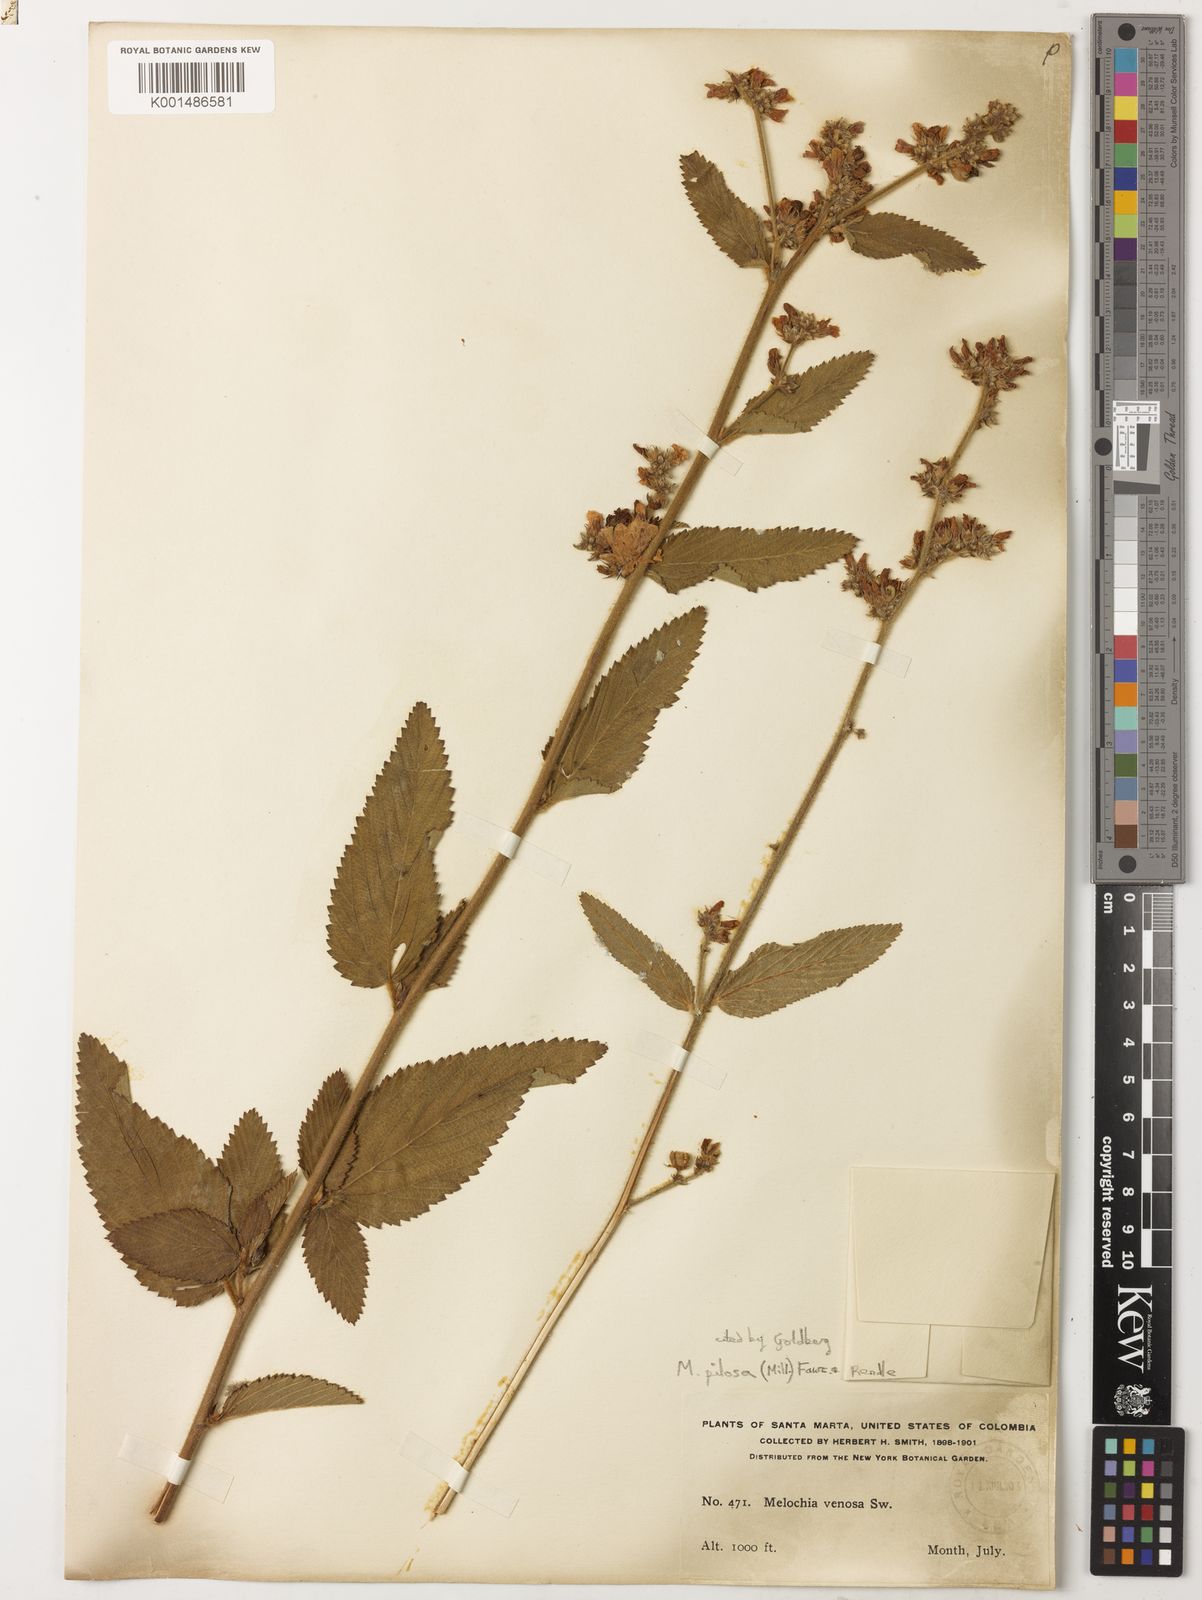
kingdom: Plantae
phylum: Tracheophyta
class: Magnoliopsida
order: Malvales
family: Malvaceae
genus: Melochia
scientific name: Melochia pilosa
